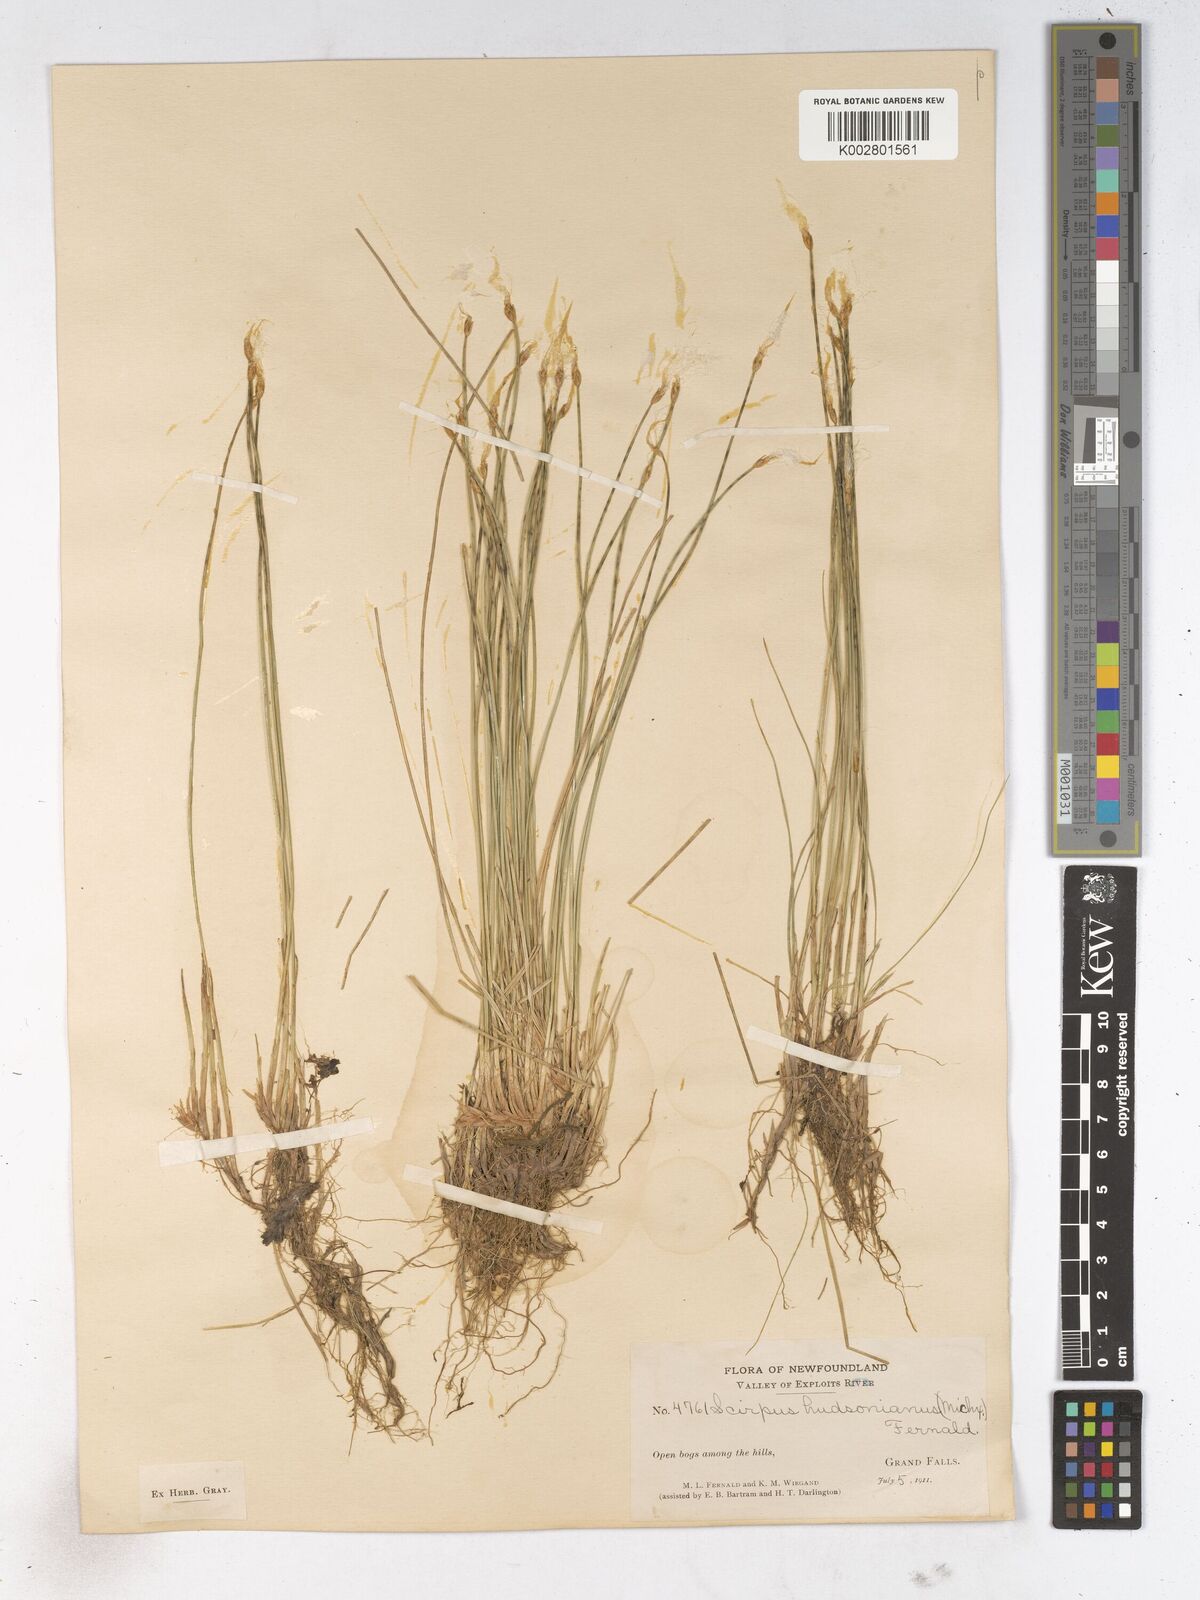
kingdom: Plantae
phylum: Tracheophyta
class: Liliopsida
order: Poales
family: Cyperaceae
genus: Trichophorum
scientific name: Trichophorum alpinum
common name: Alpine bulrush
